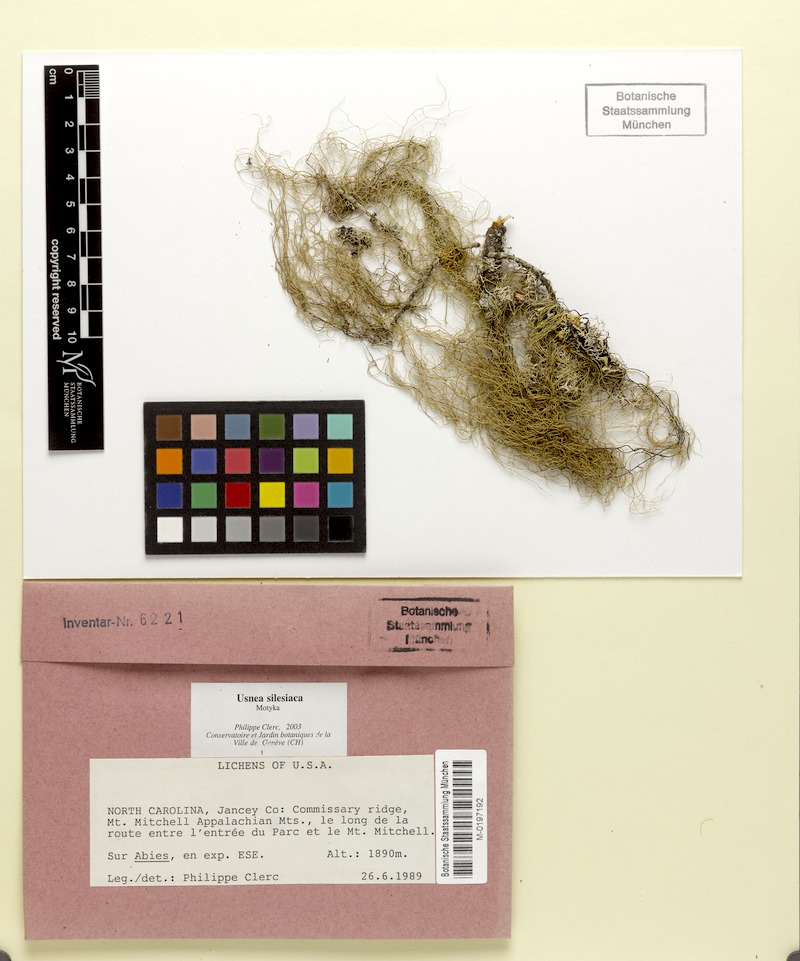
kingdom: Fungi
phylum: Ascomycota
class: Lecanoromycetes
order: Lecanorales
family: Parmeliaceae
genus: Usnea
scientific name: Usnea silesiaca
